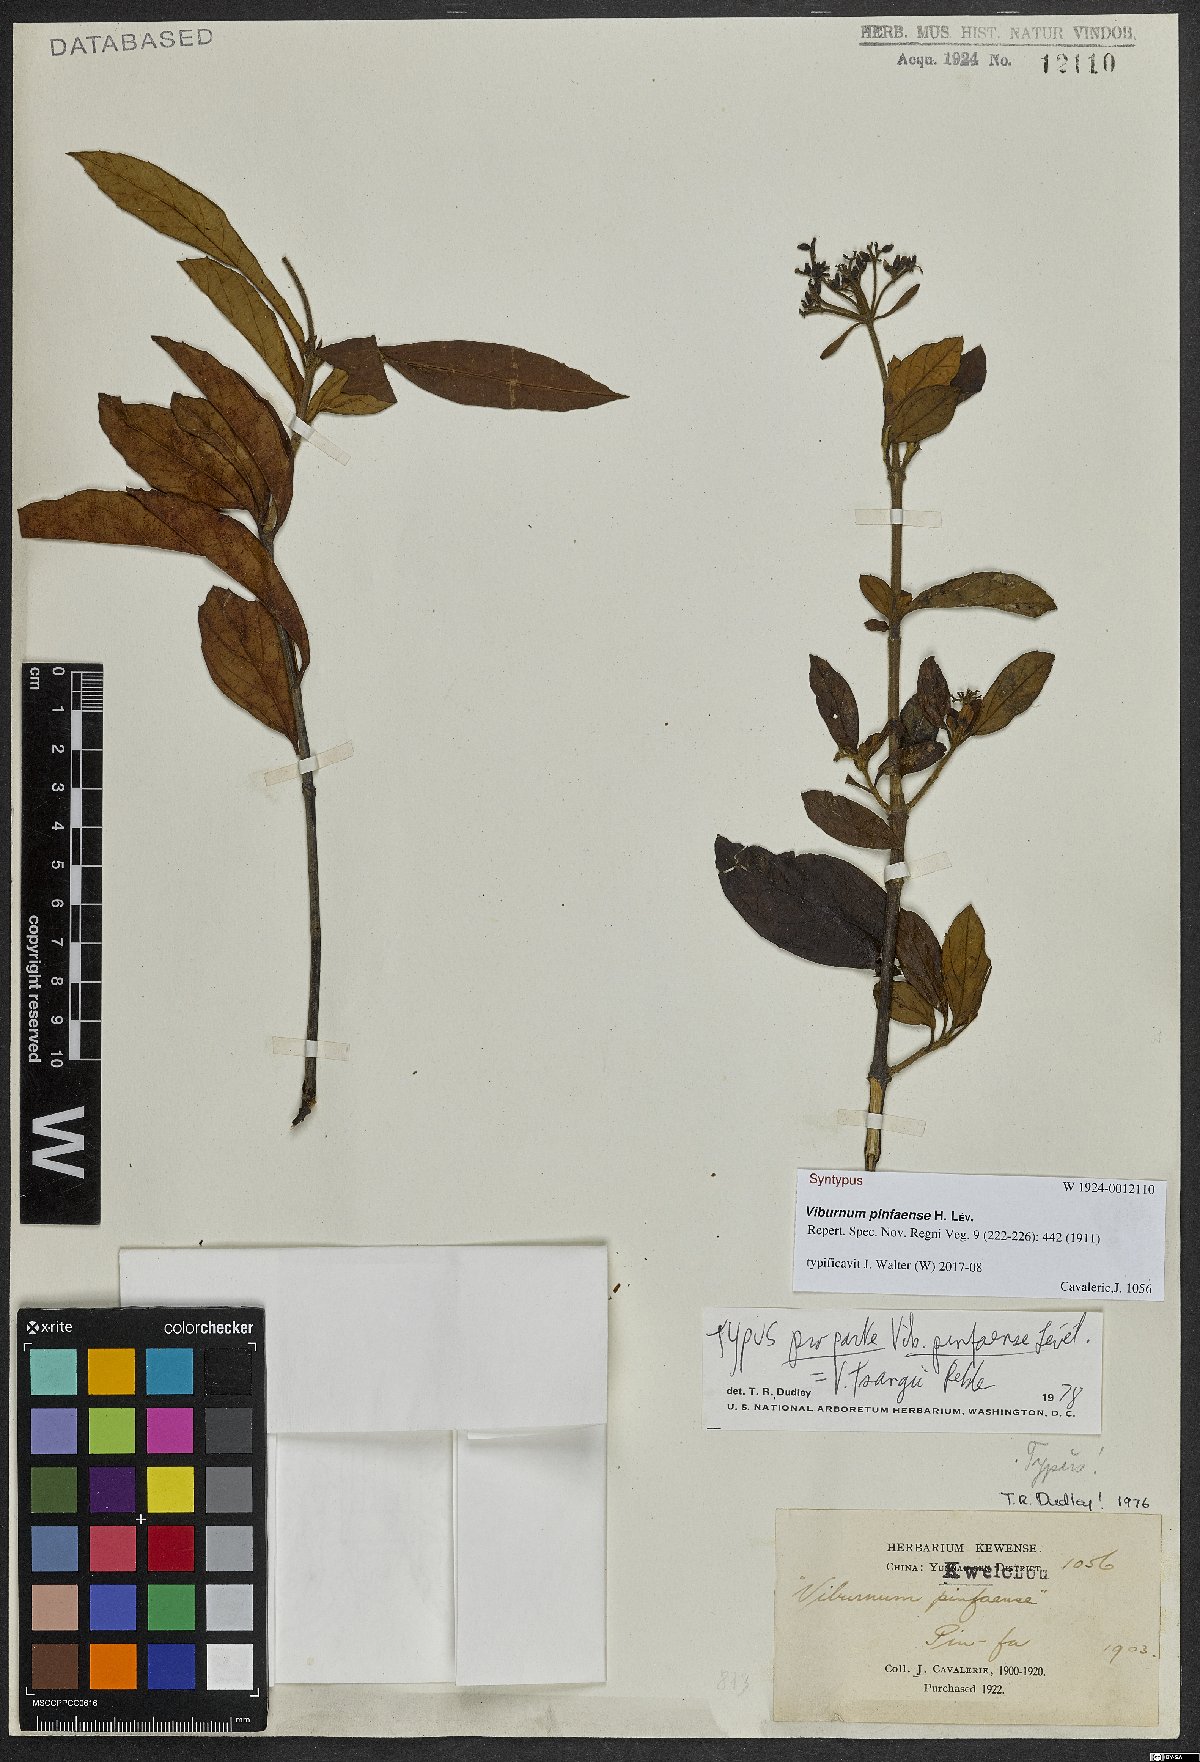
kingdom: Plantae
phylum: Tracheophyta
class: Magnoliopsida
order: Dipsacales
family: Viburnaceae
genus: Viburnum
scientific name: Viburnum sempervirens
